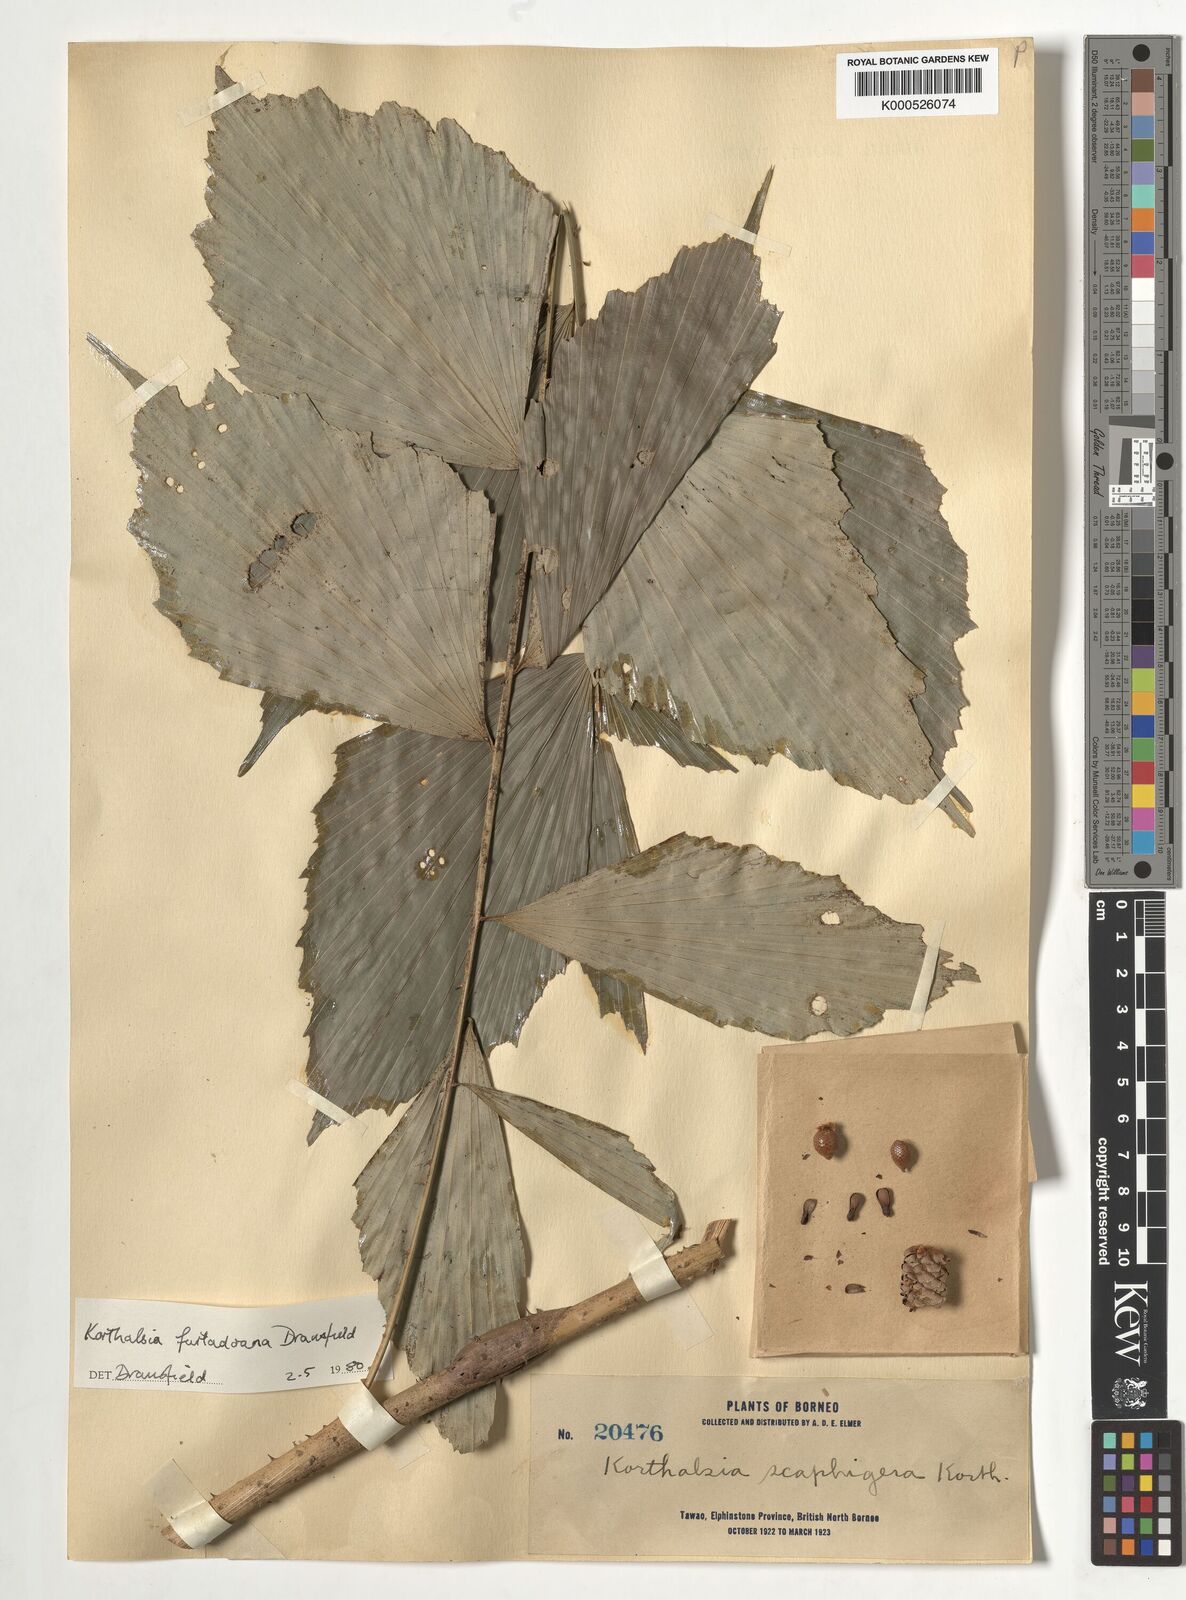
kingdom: Plantae
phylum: Tracheophyta
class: Liliopsida
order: Arecales
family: Arecaceae
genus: Korthalsia
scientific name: Korthalsia furtadoana
